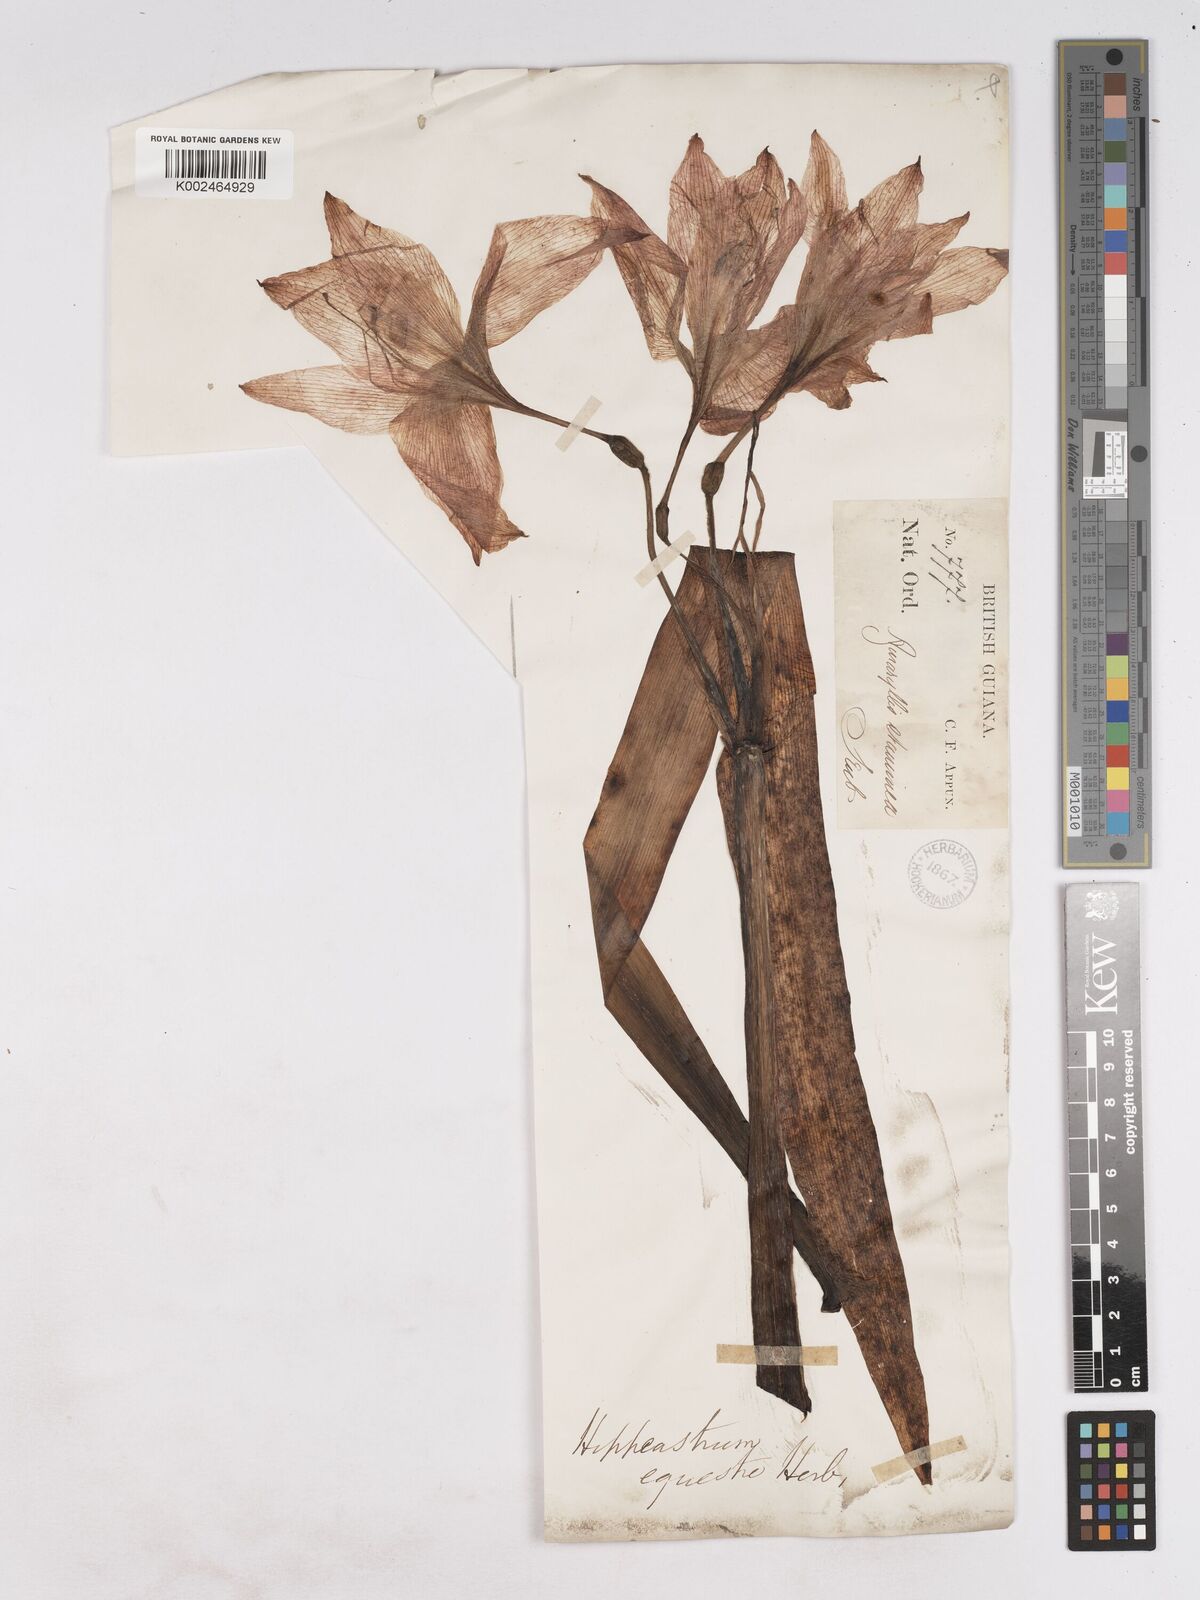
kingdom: Plantae
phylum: Tracheophyta
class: Liliopsida
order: Asparagales
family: Amaryllidaceae
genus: Hippeastrum
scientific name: Hippeastrum puniceum
